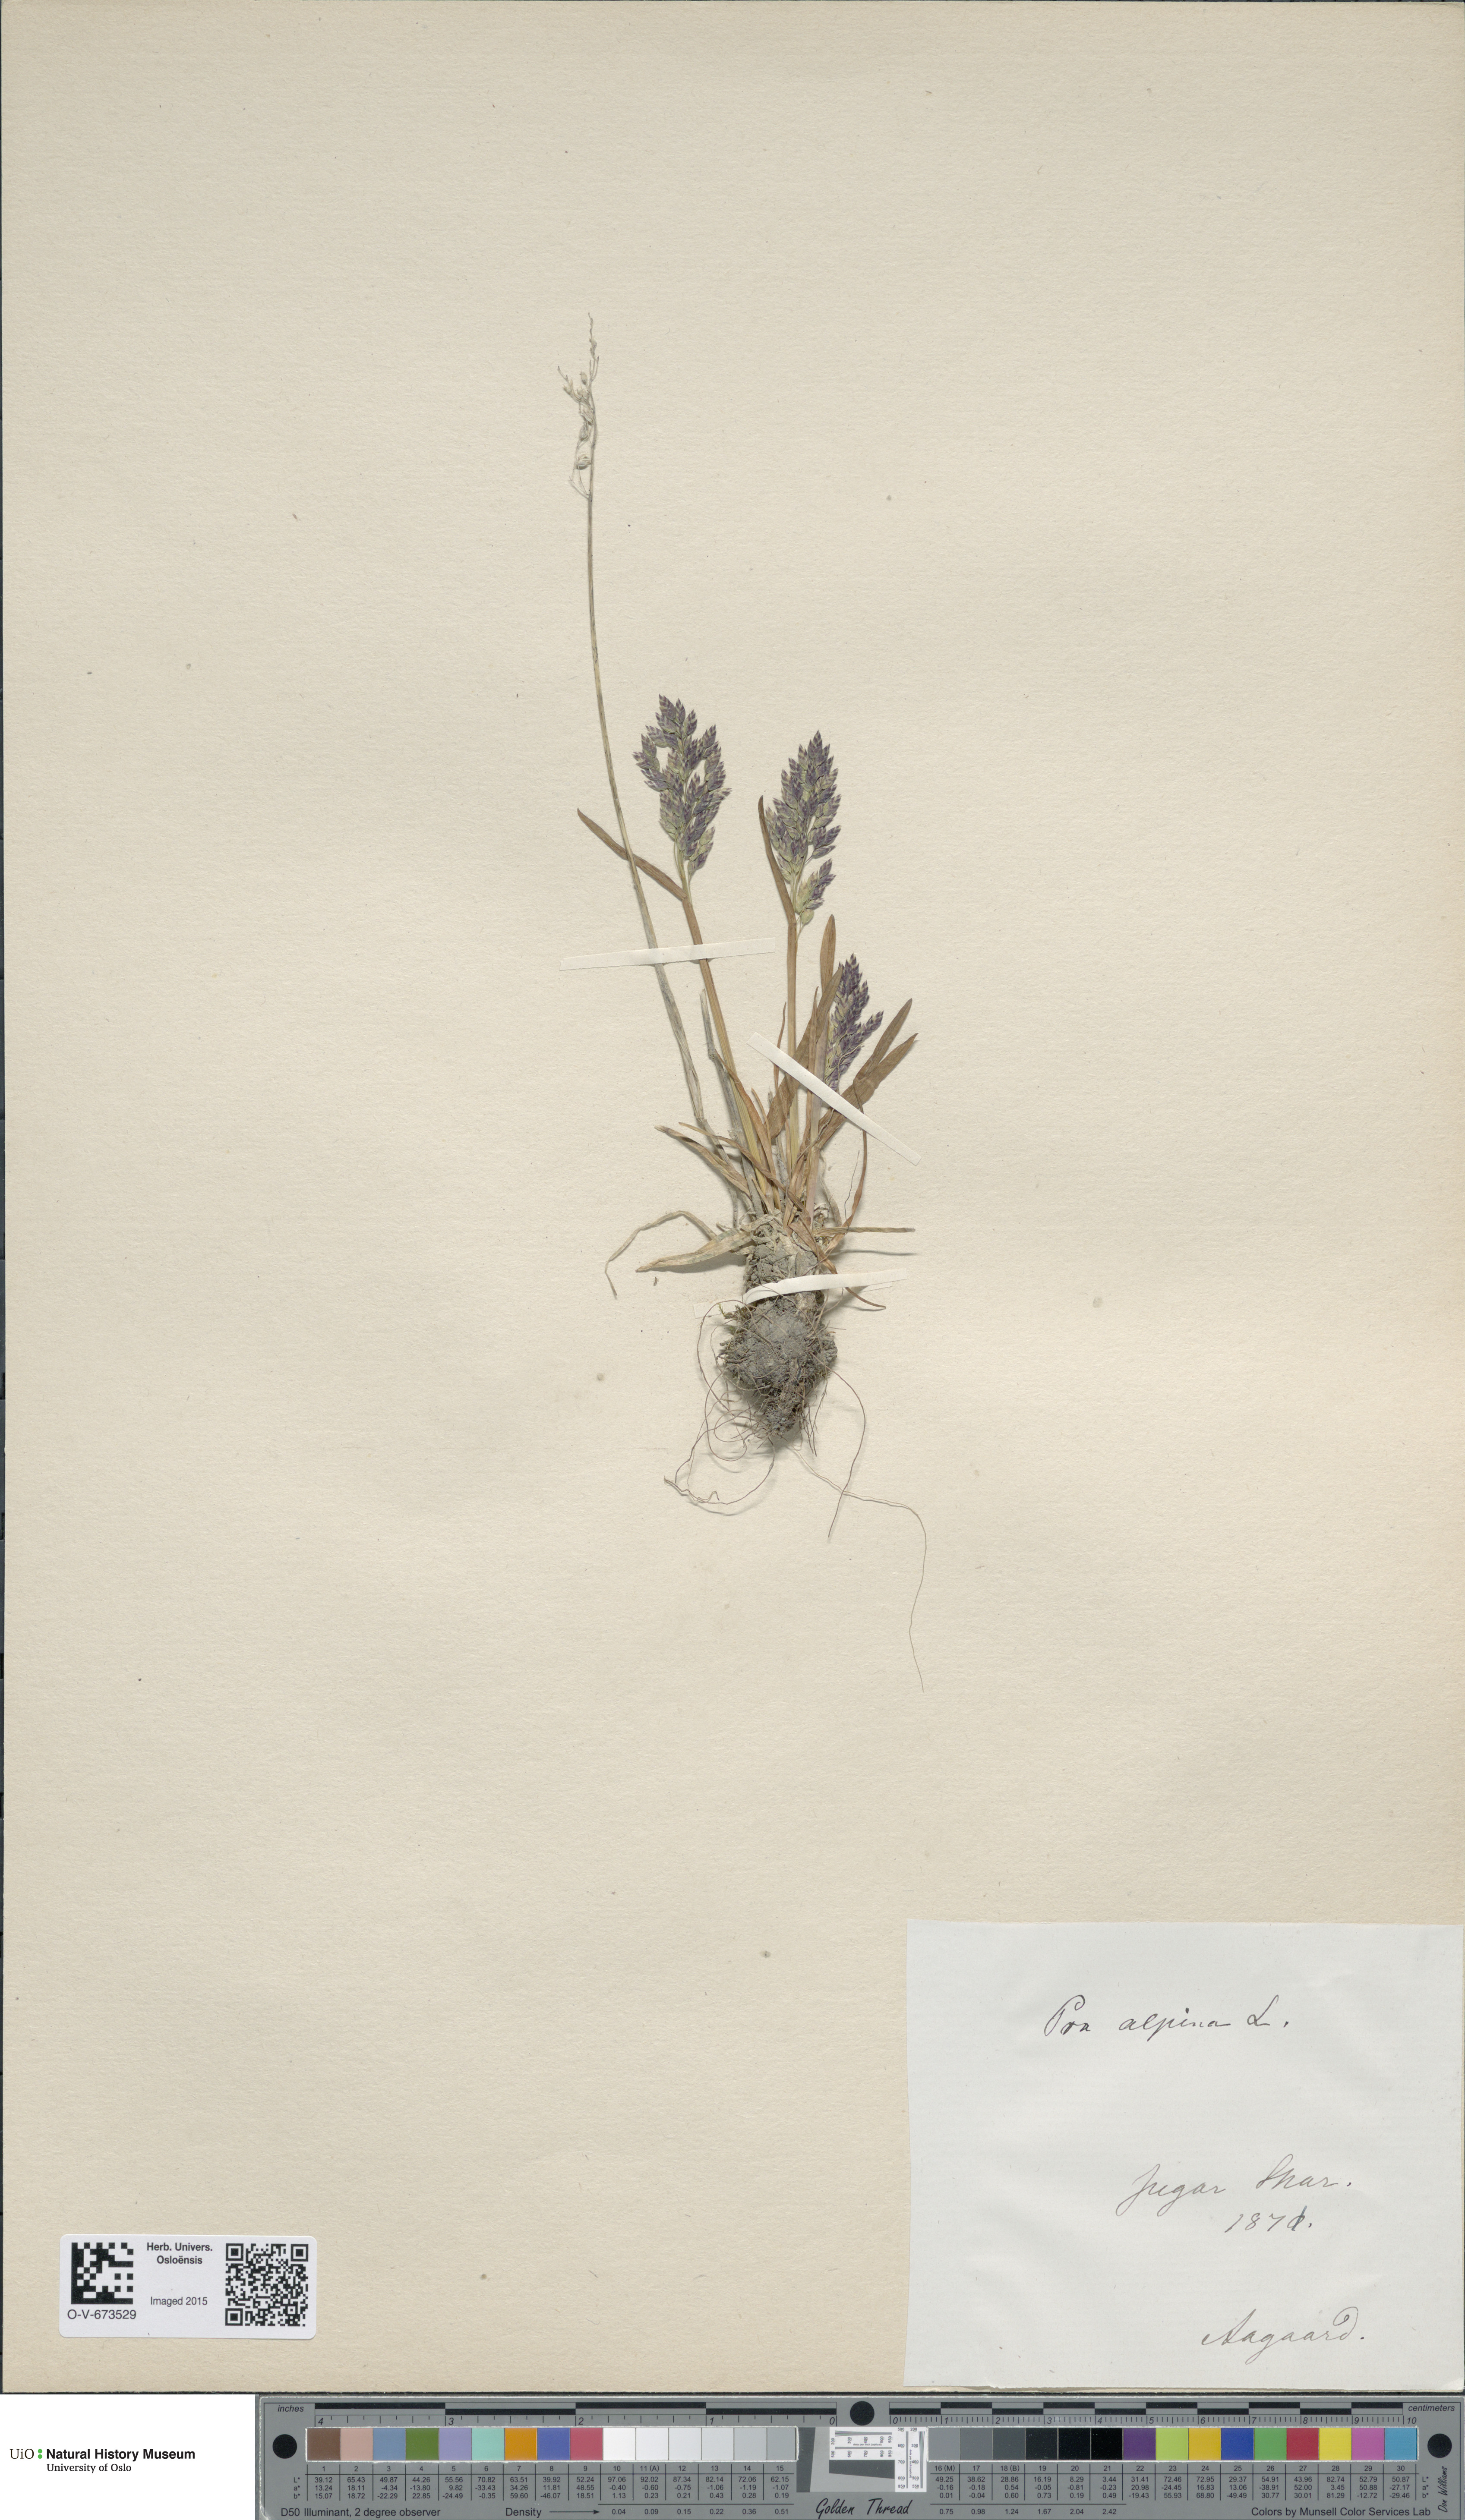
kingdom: Plantae
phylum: Tracheophyta
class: Liliopsida
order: Poales
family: Poaceae
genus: Poa
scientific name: Poa alpina
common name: Alpine bluegrass
